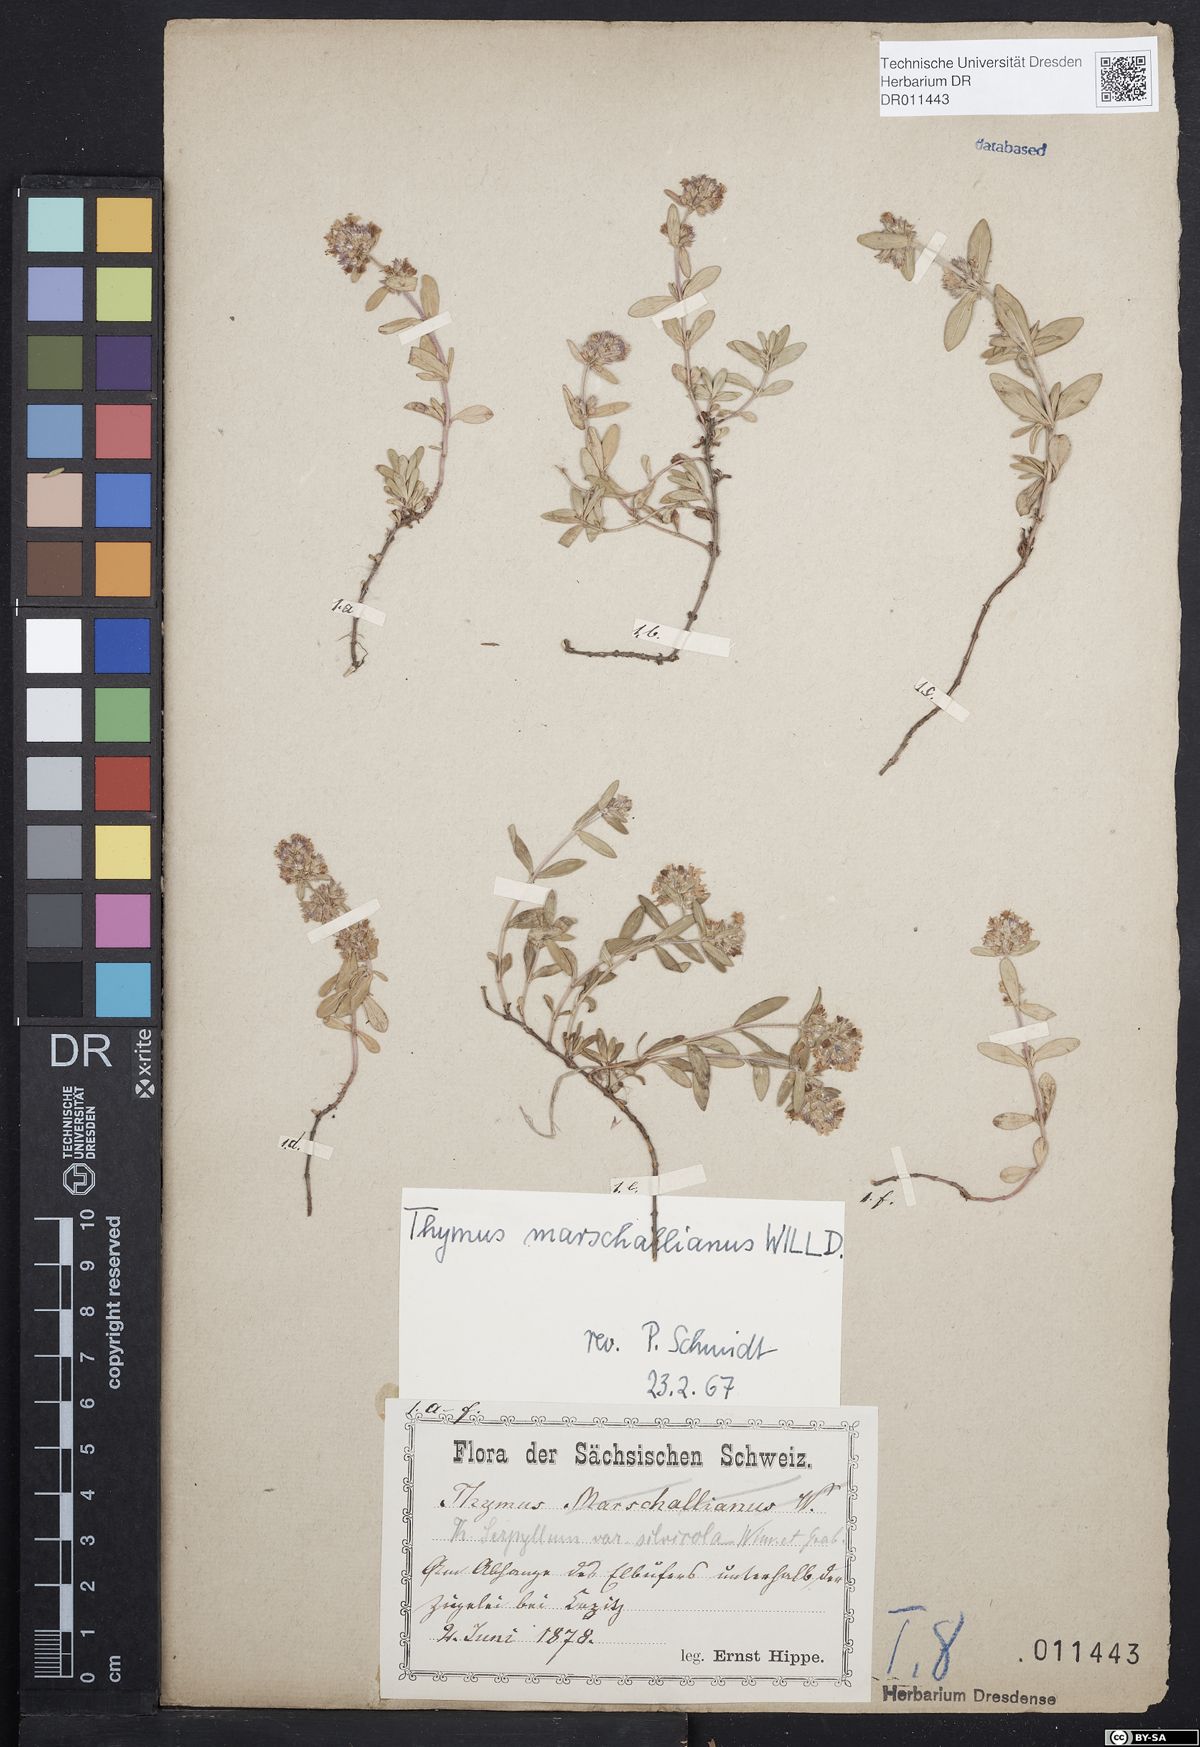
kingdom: Plantae
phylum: Tracheophyta
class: Magnoliopsida
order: Lamiales
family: Lamiaceae
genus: Thymus
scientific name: Thymus pannonicus
